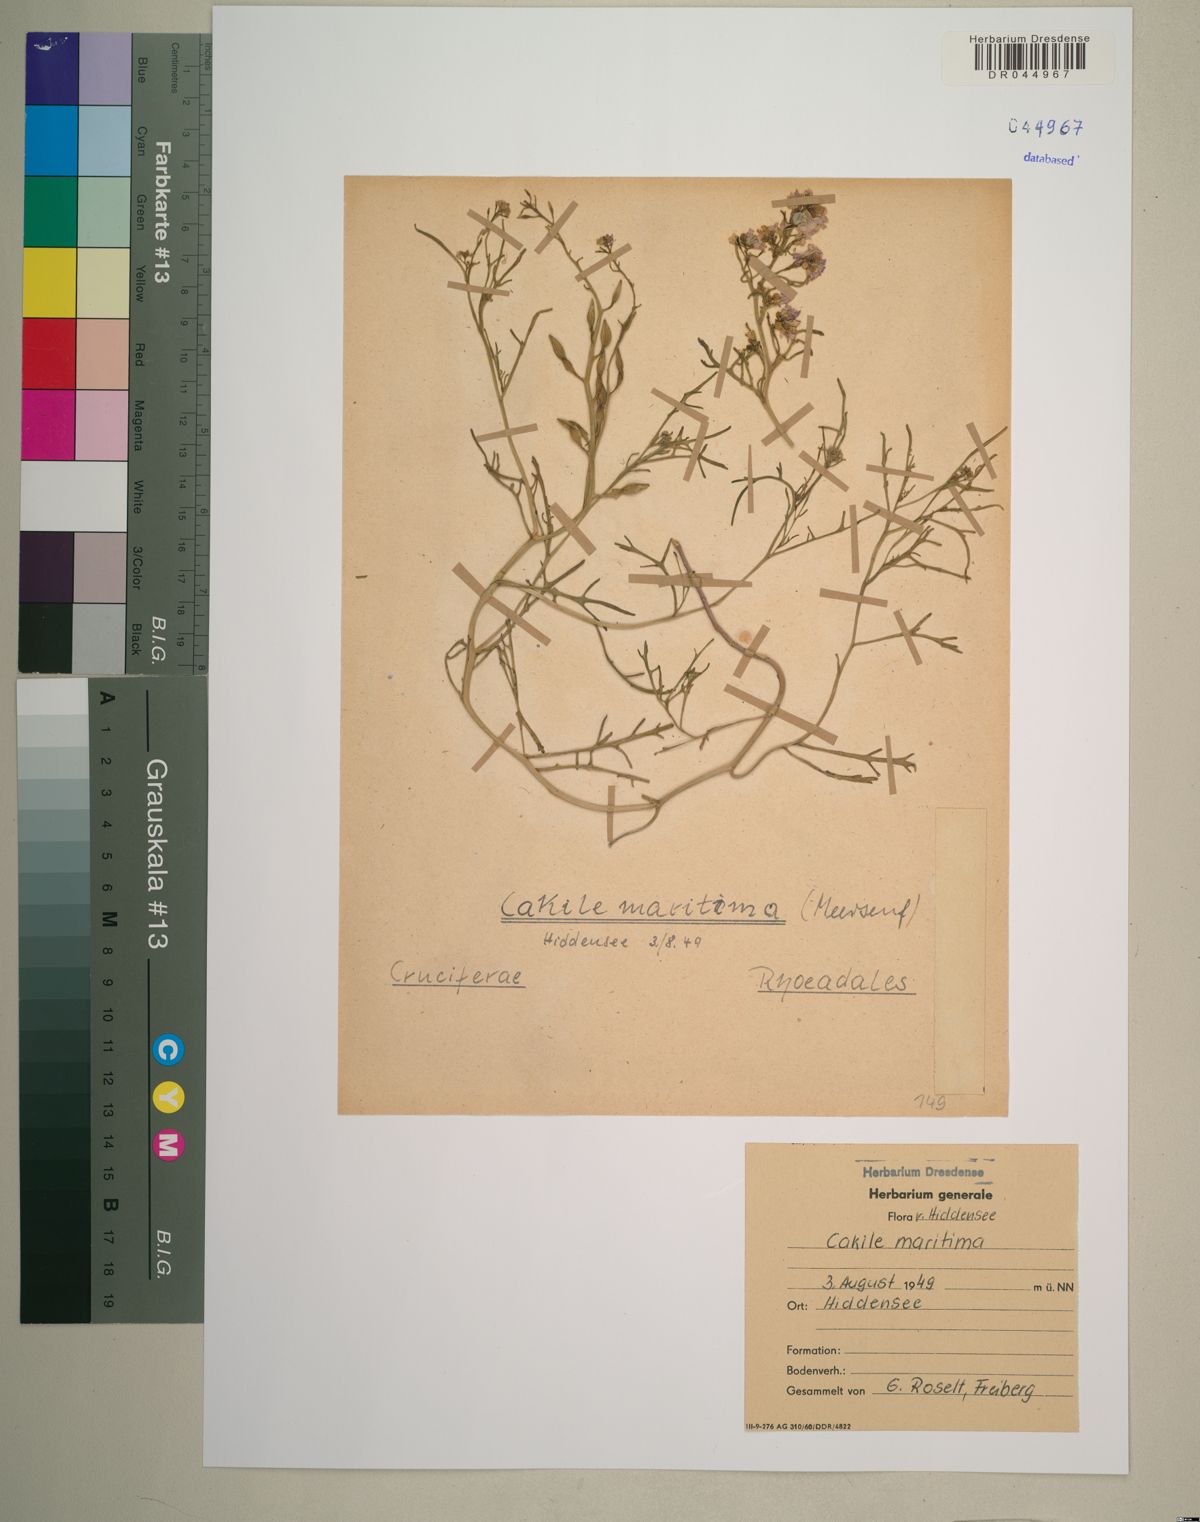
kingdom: Plantae
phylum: Tracheophyta
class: Magnoliopsida
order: Brassicales
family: Brassicaceae
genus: Cakile
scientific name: Cakile maritima
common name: Sea rocket
